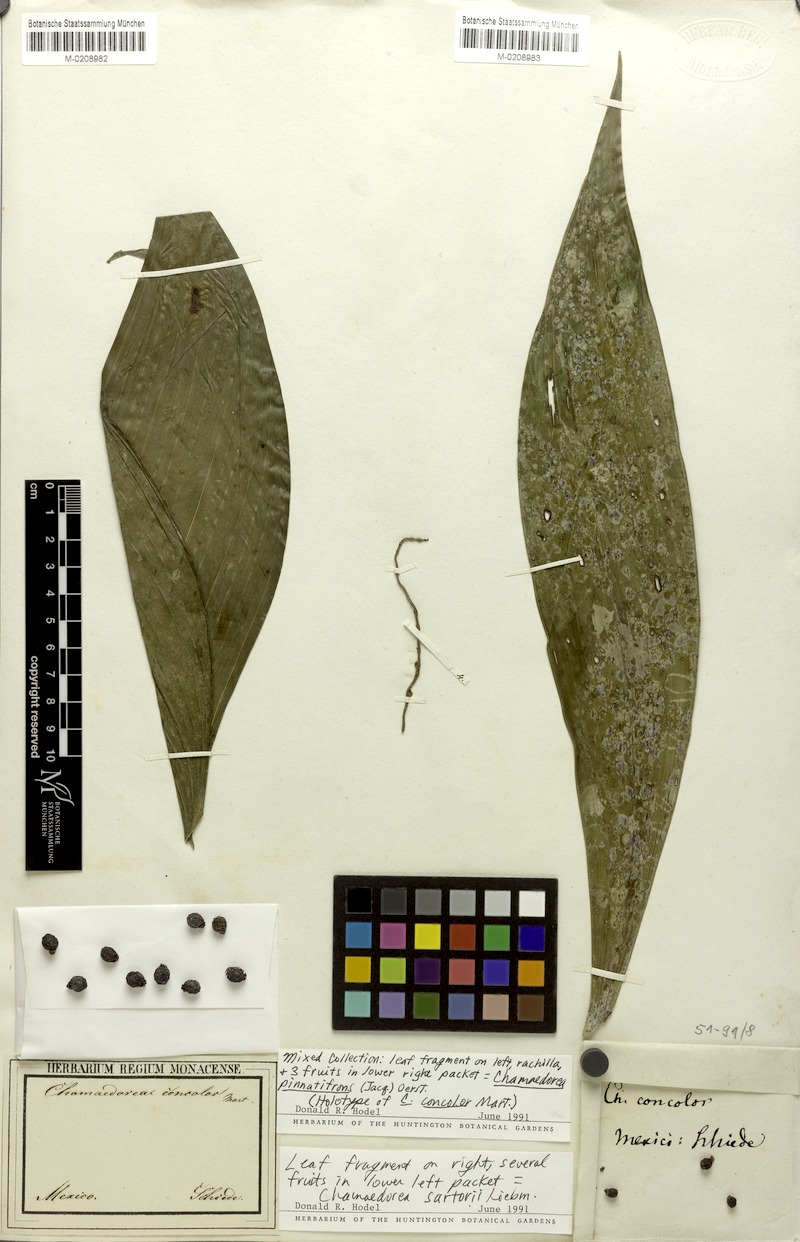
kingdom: Plantae
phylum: Tracheophyta
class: Liliopsida
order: Arecales
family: Arecaceae
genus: Chamaedorea
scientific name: Chamaedorea pinnatifrons
